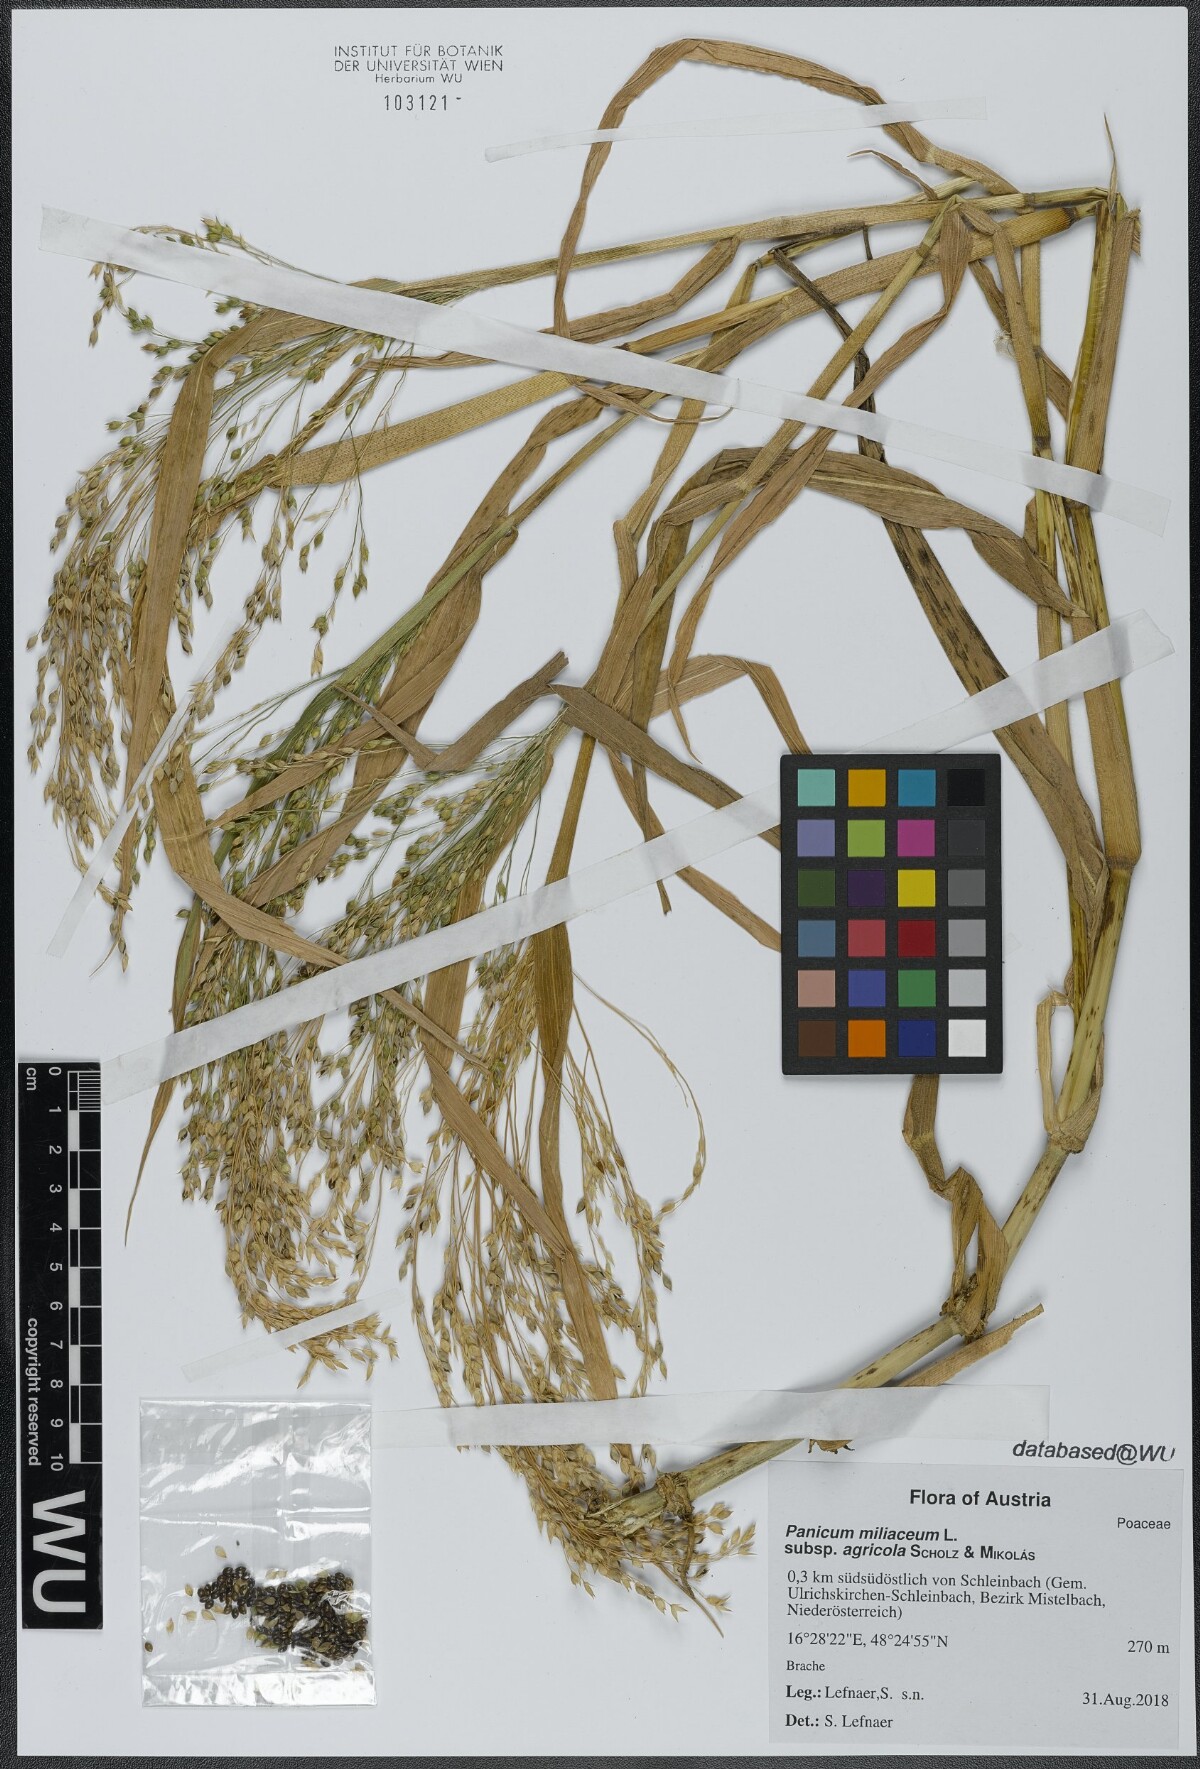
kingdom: Plantae
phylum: Tracheophyta
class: Liliopsida
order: Poales
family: Poaceae
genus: Panicum
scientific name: Panicum miliaceum
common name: Common millet
